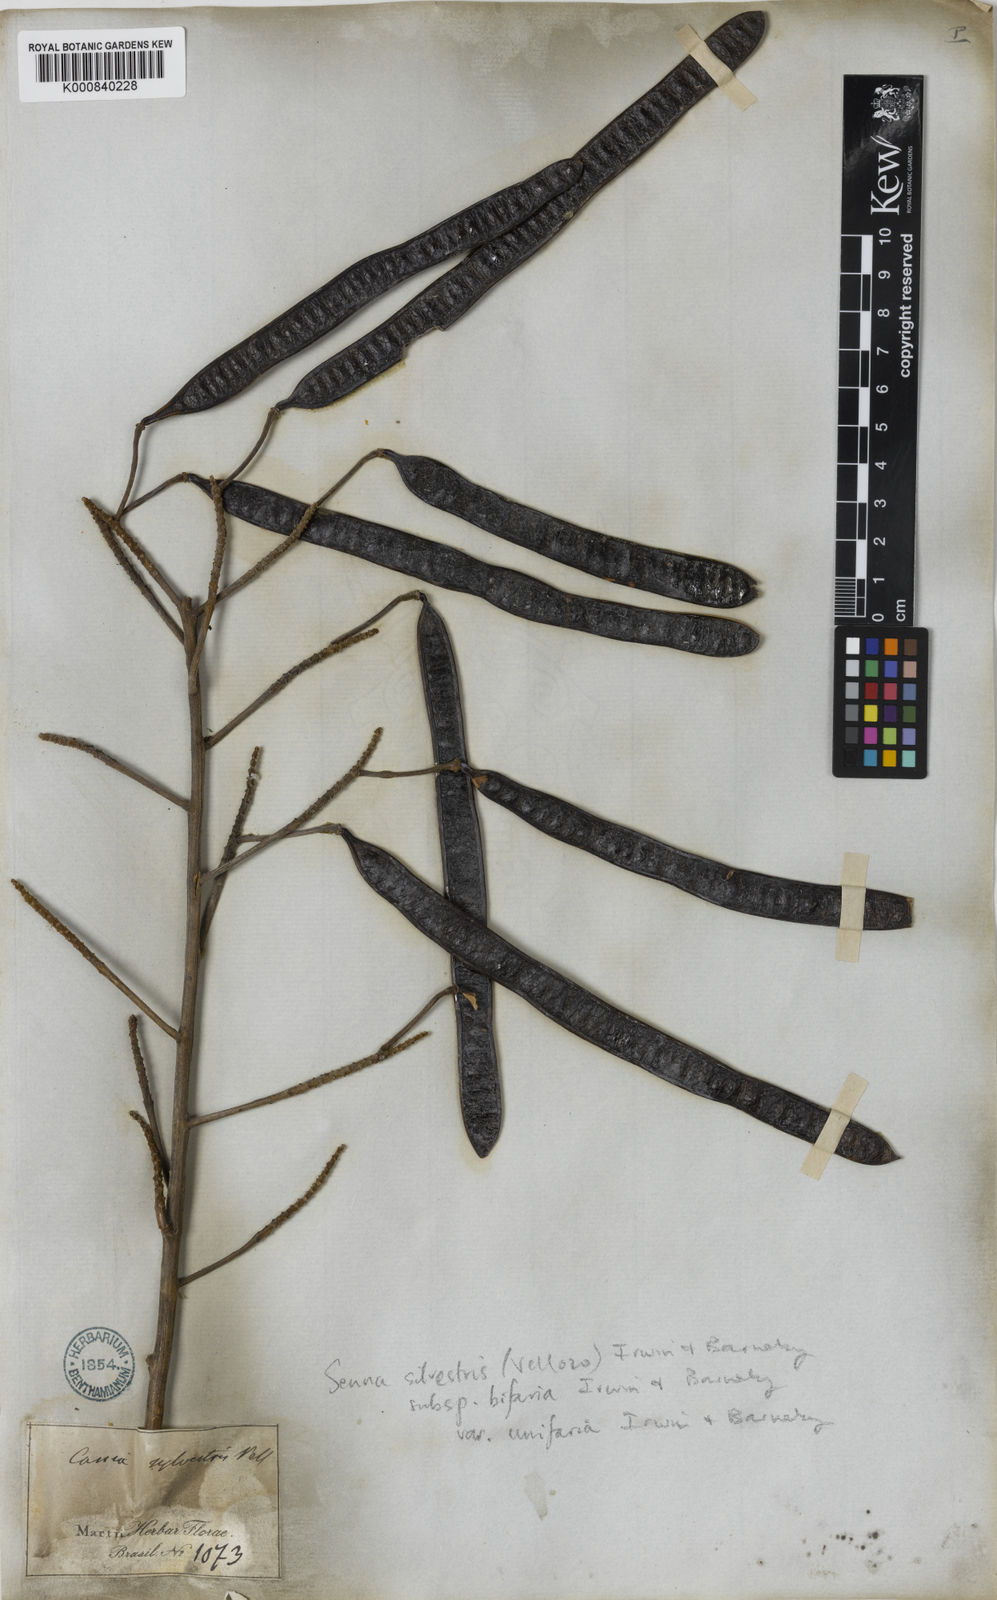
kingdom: Plantae
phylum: Tracheophyta
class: Magnoliopsida
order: Fabales
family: Fabaceae
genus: Senna
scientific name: Senna silvestris
